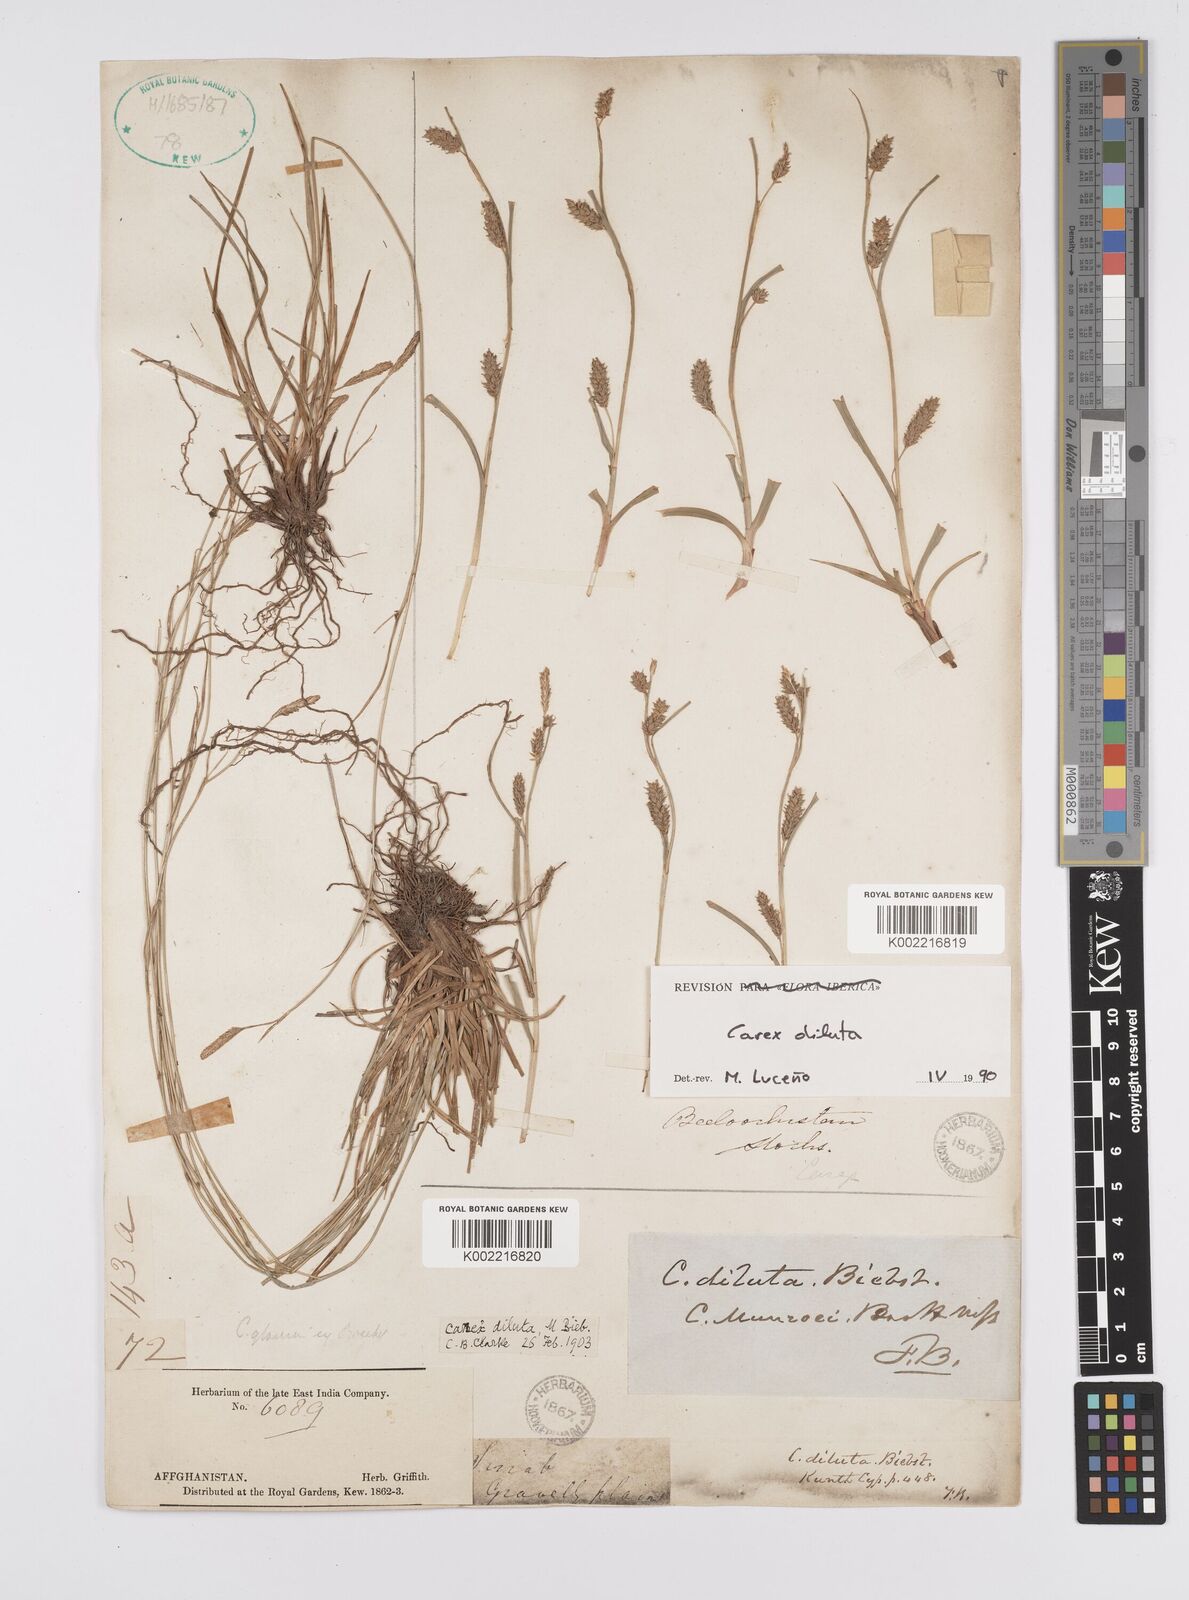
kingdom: Plantae
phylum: Tracheophyta
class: Liliopsida
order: Poales
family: Cyperaceae
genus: Carex
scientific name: Carex diluta
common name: Sedge
